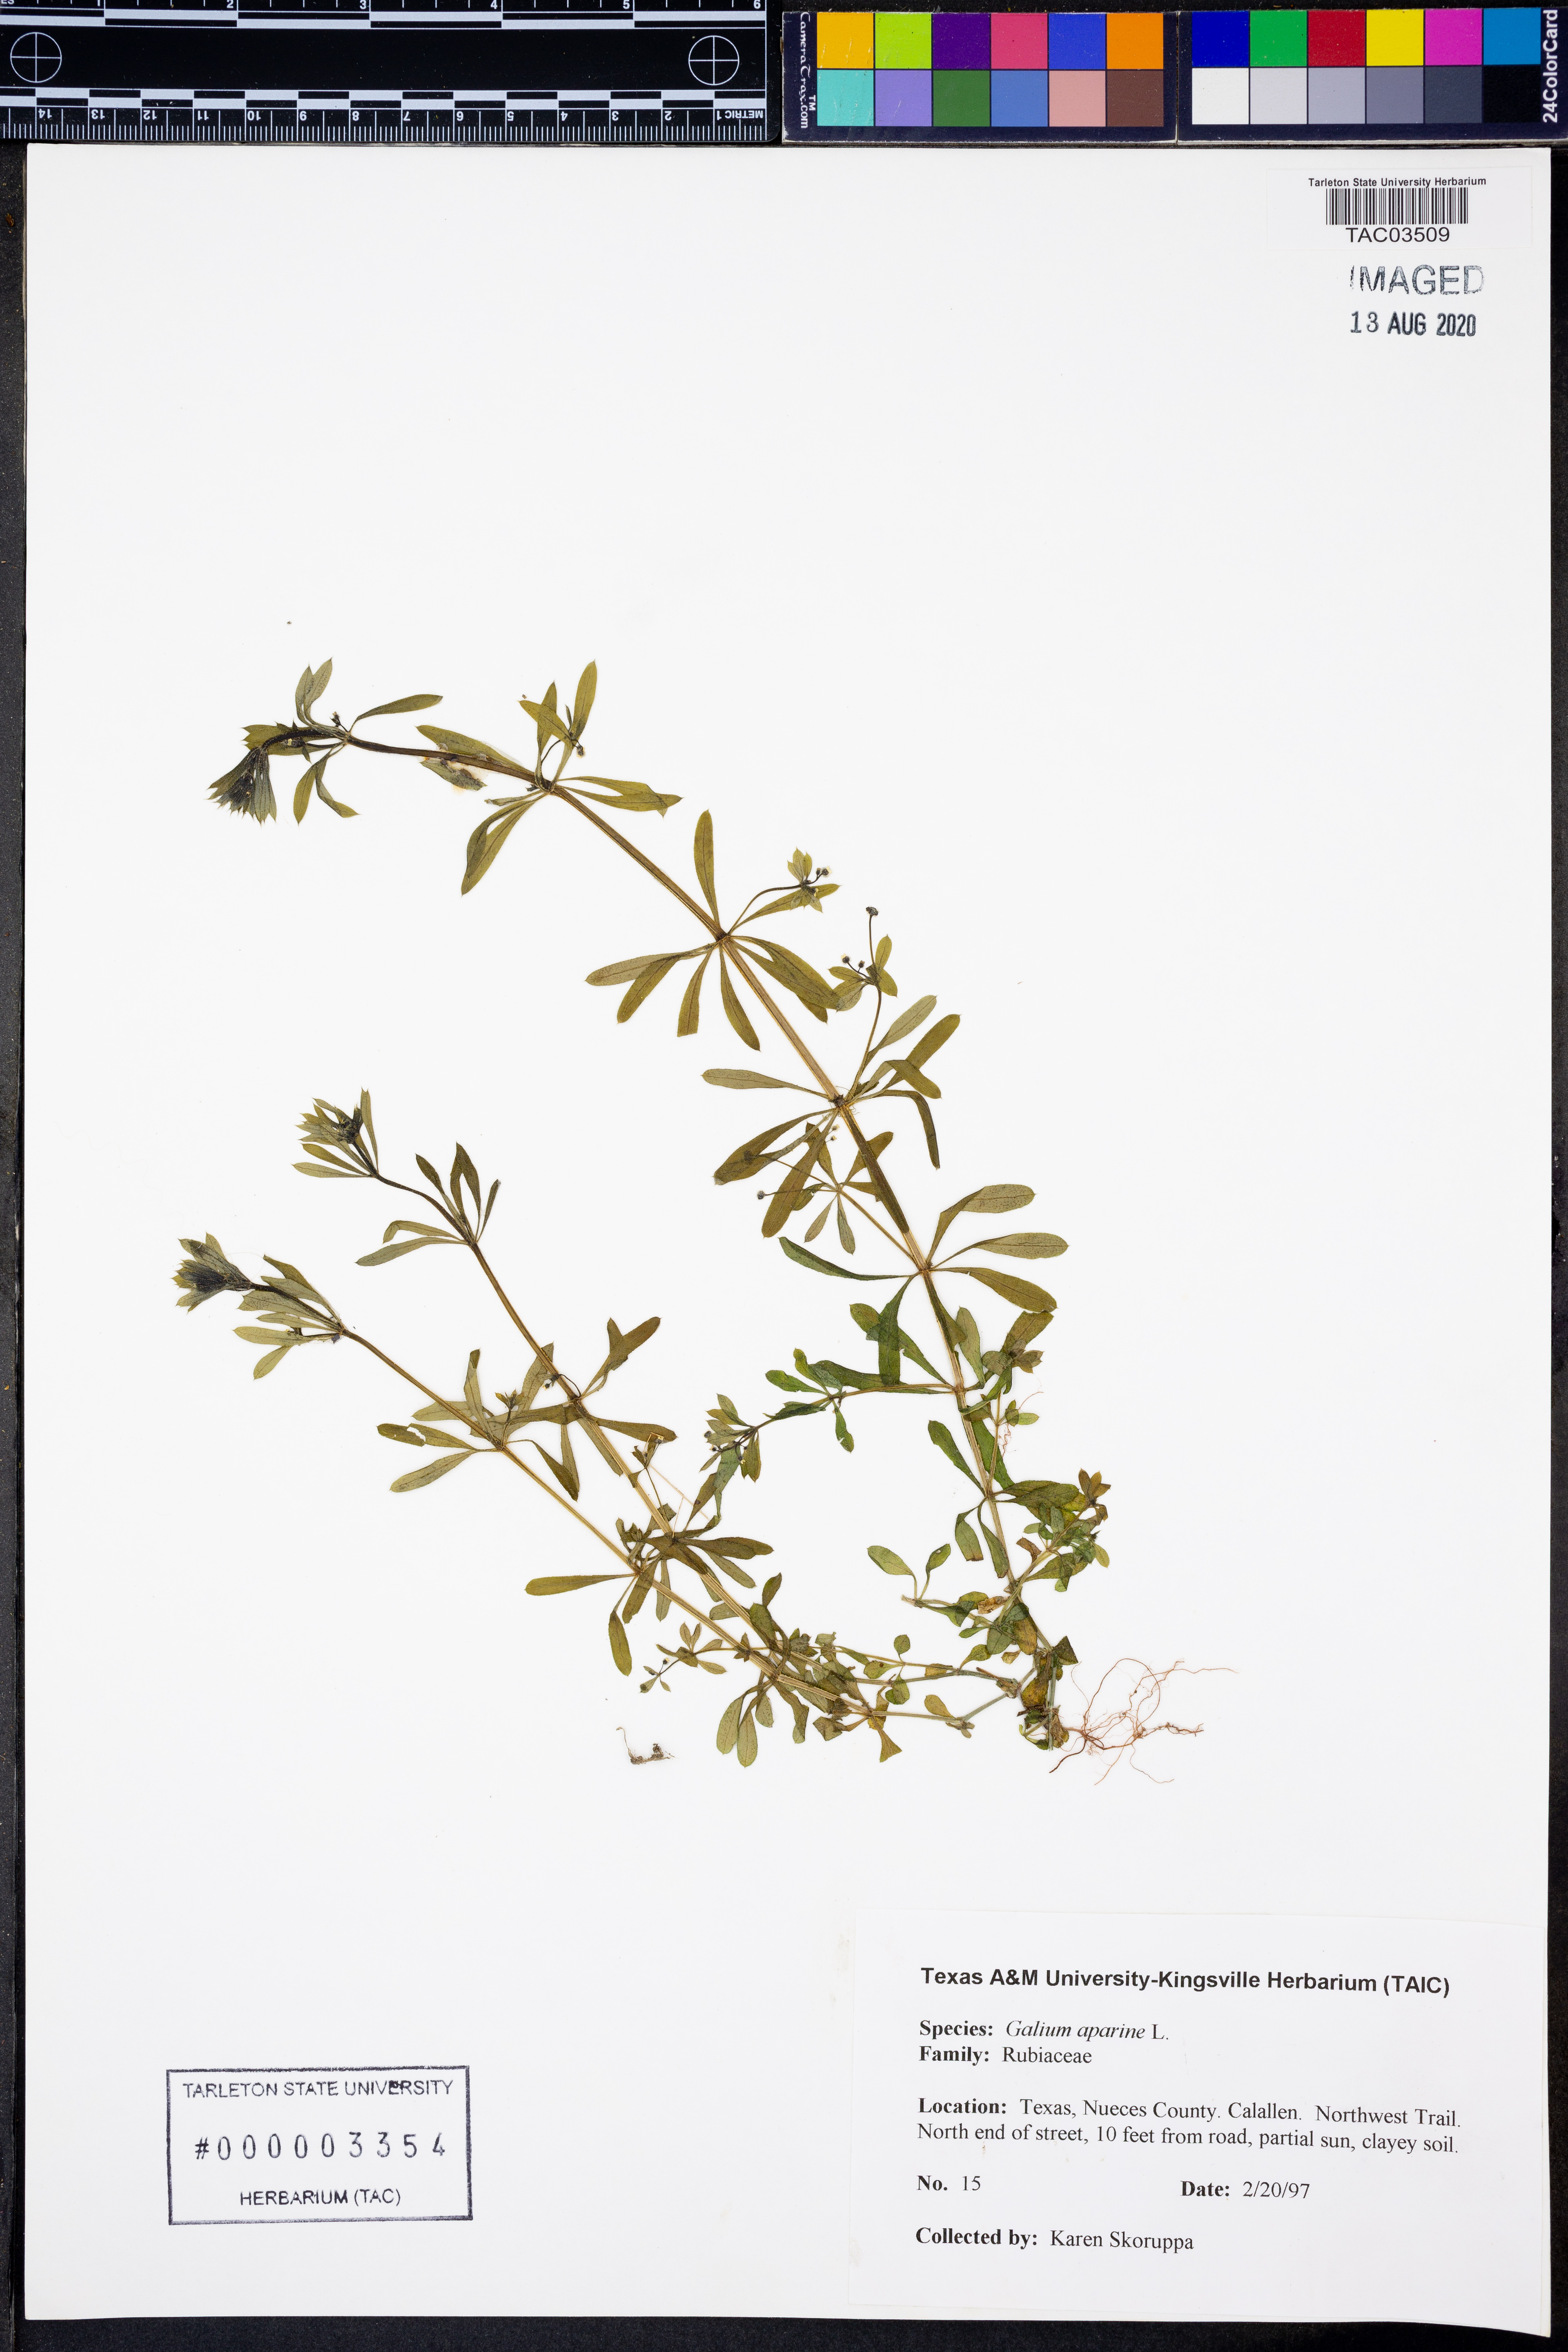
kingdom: Plantae
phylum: Tracheophyta
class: Magnoliopsida
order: Gentianales
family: Rubiaceae
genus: Galium
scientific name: Galium aparine
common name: Cleavers
